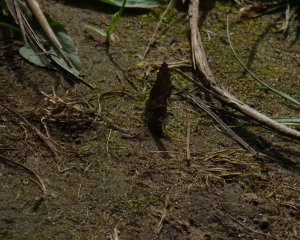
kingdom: Animalia
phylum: Arthropoda
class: Insecta
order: Lepidoptera
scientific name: Lepidoptera
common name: Butterflies
